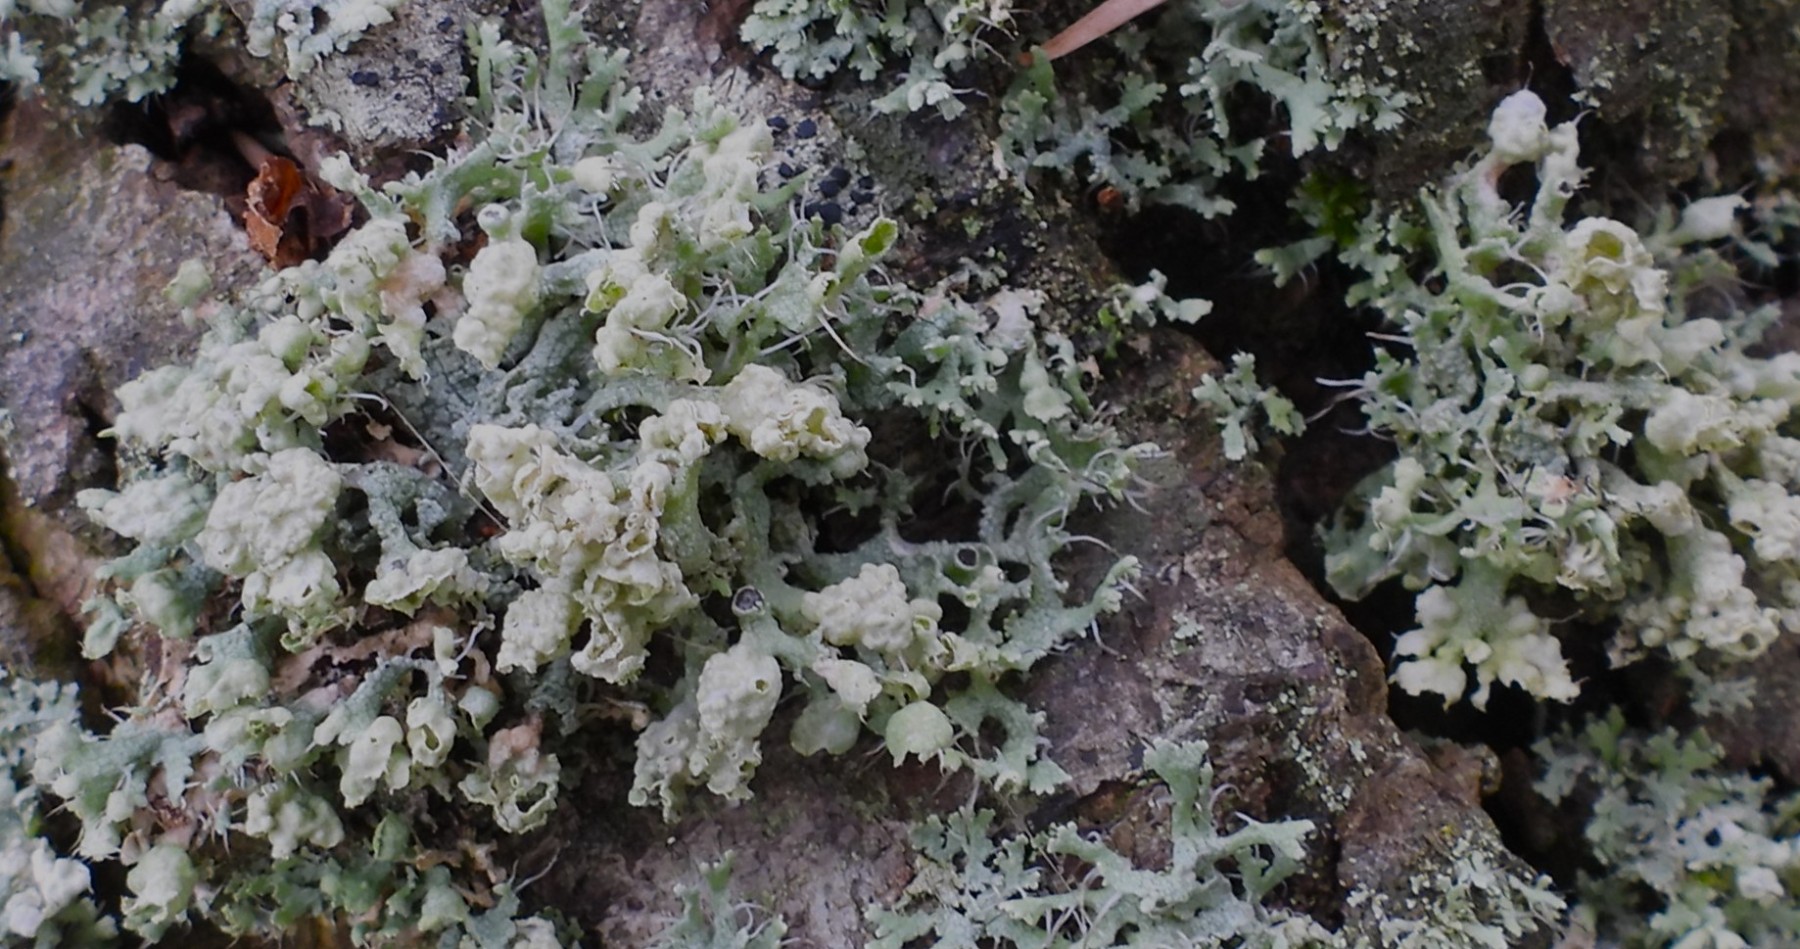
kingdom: Fungi
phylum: Ascomycota
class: Lecanoromycetes
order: Caliciales
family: Physciaceae
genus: Physcia
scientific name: Physcia adscendens
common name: hætte-rosetlav
